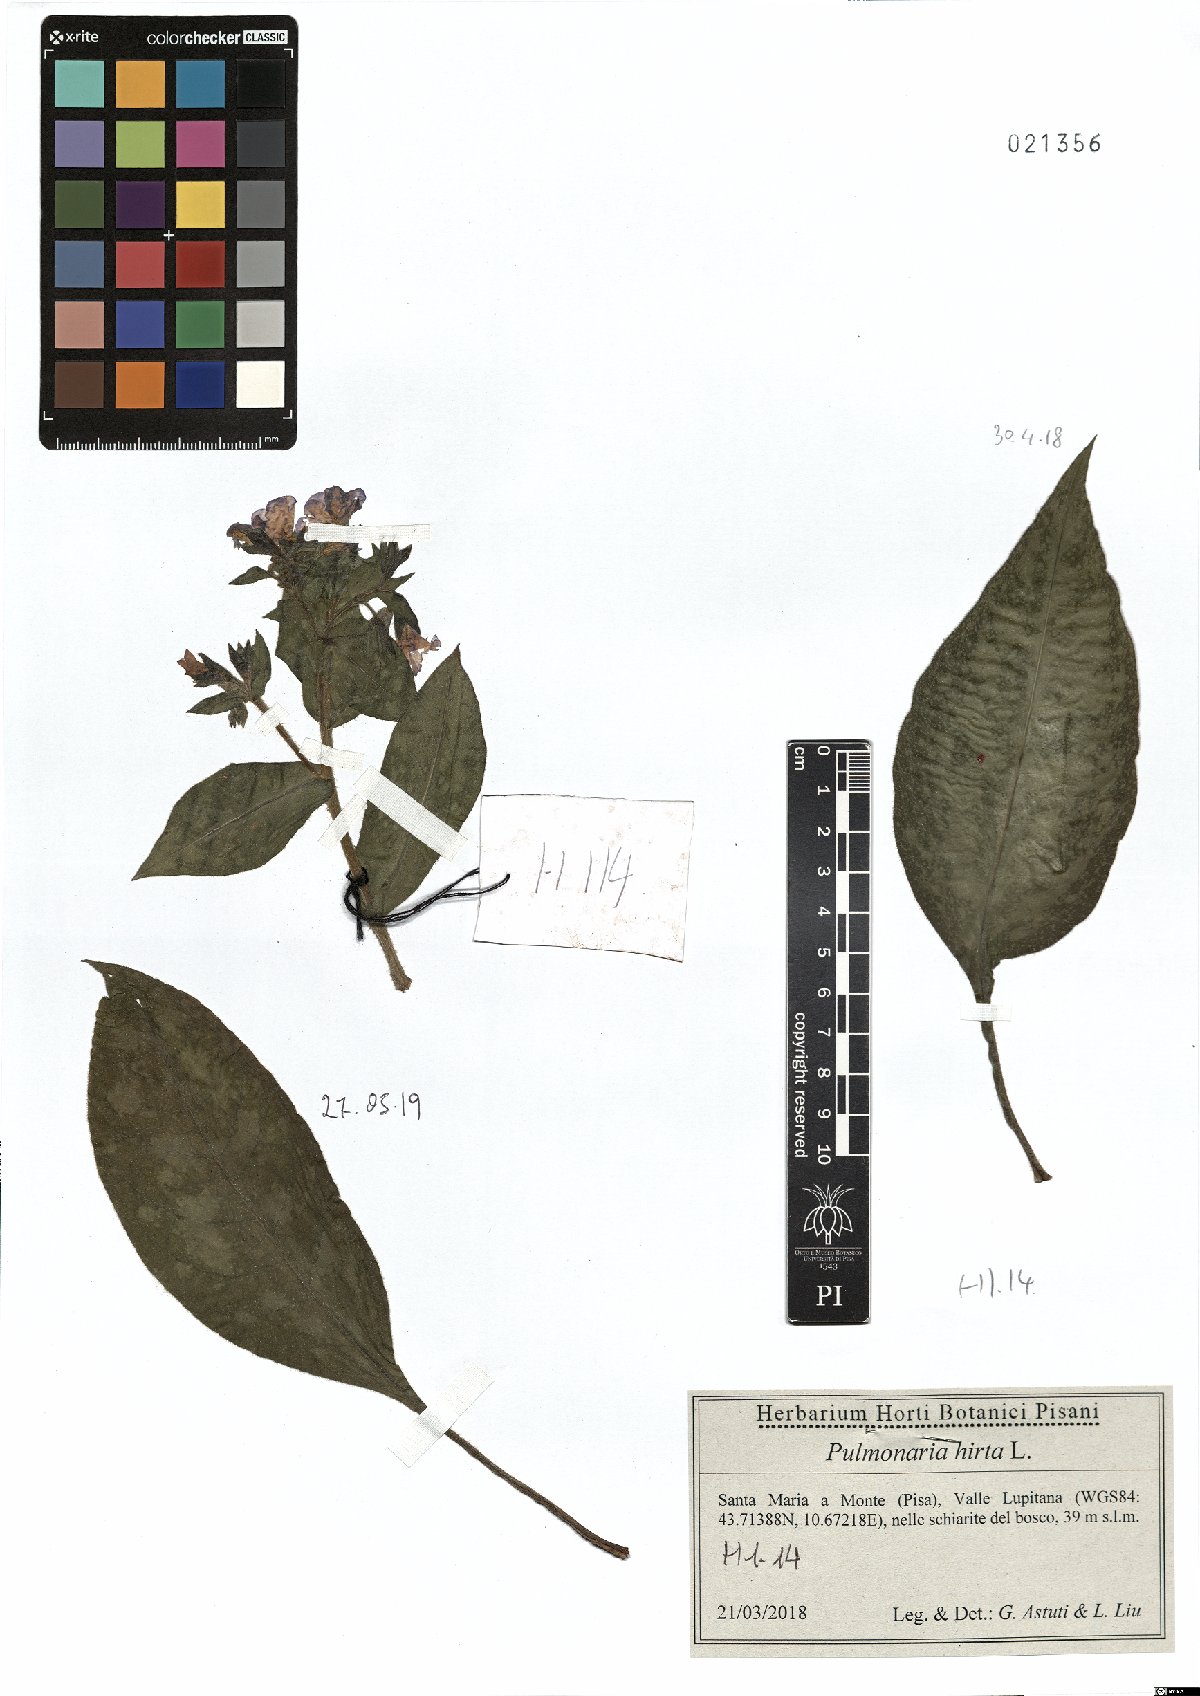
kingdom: Plantae
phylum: Tracheophyta
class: Magnoliopsida
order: Boraginales
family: Boraginaceae
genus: Pulmonaria
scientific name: Pulmonaria hirta
